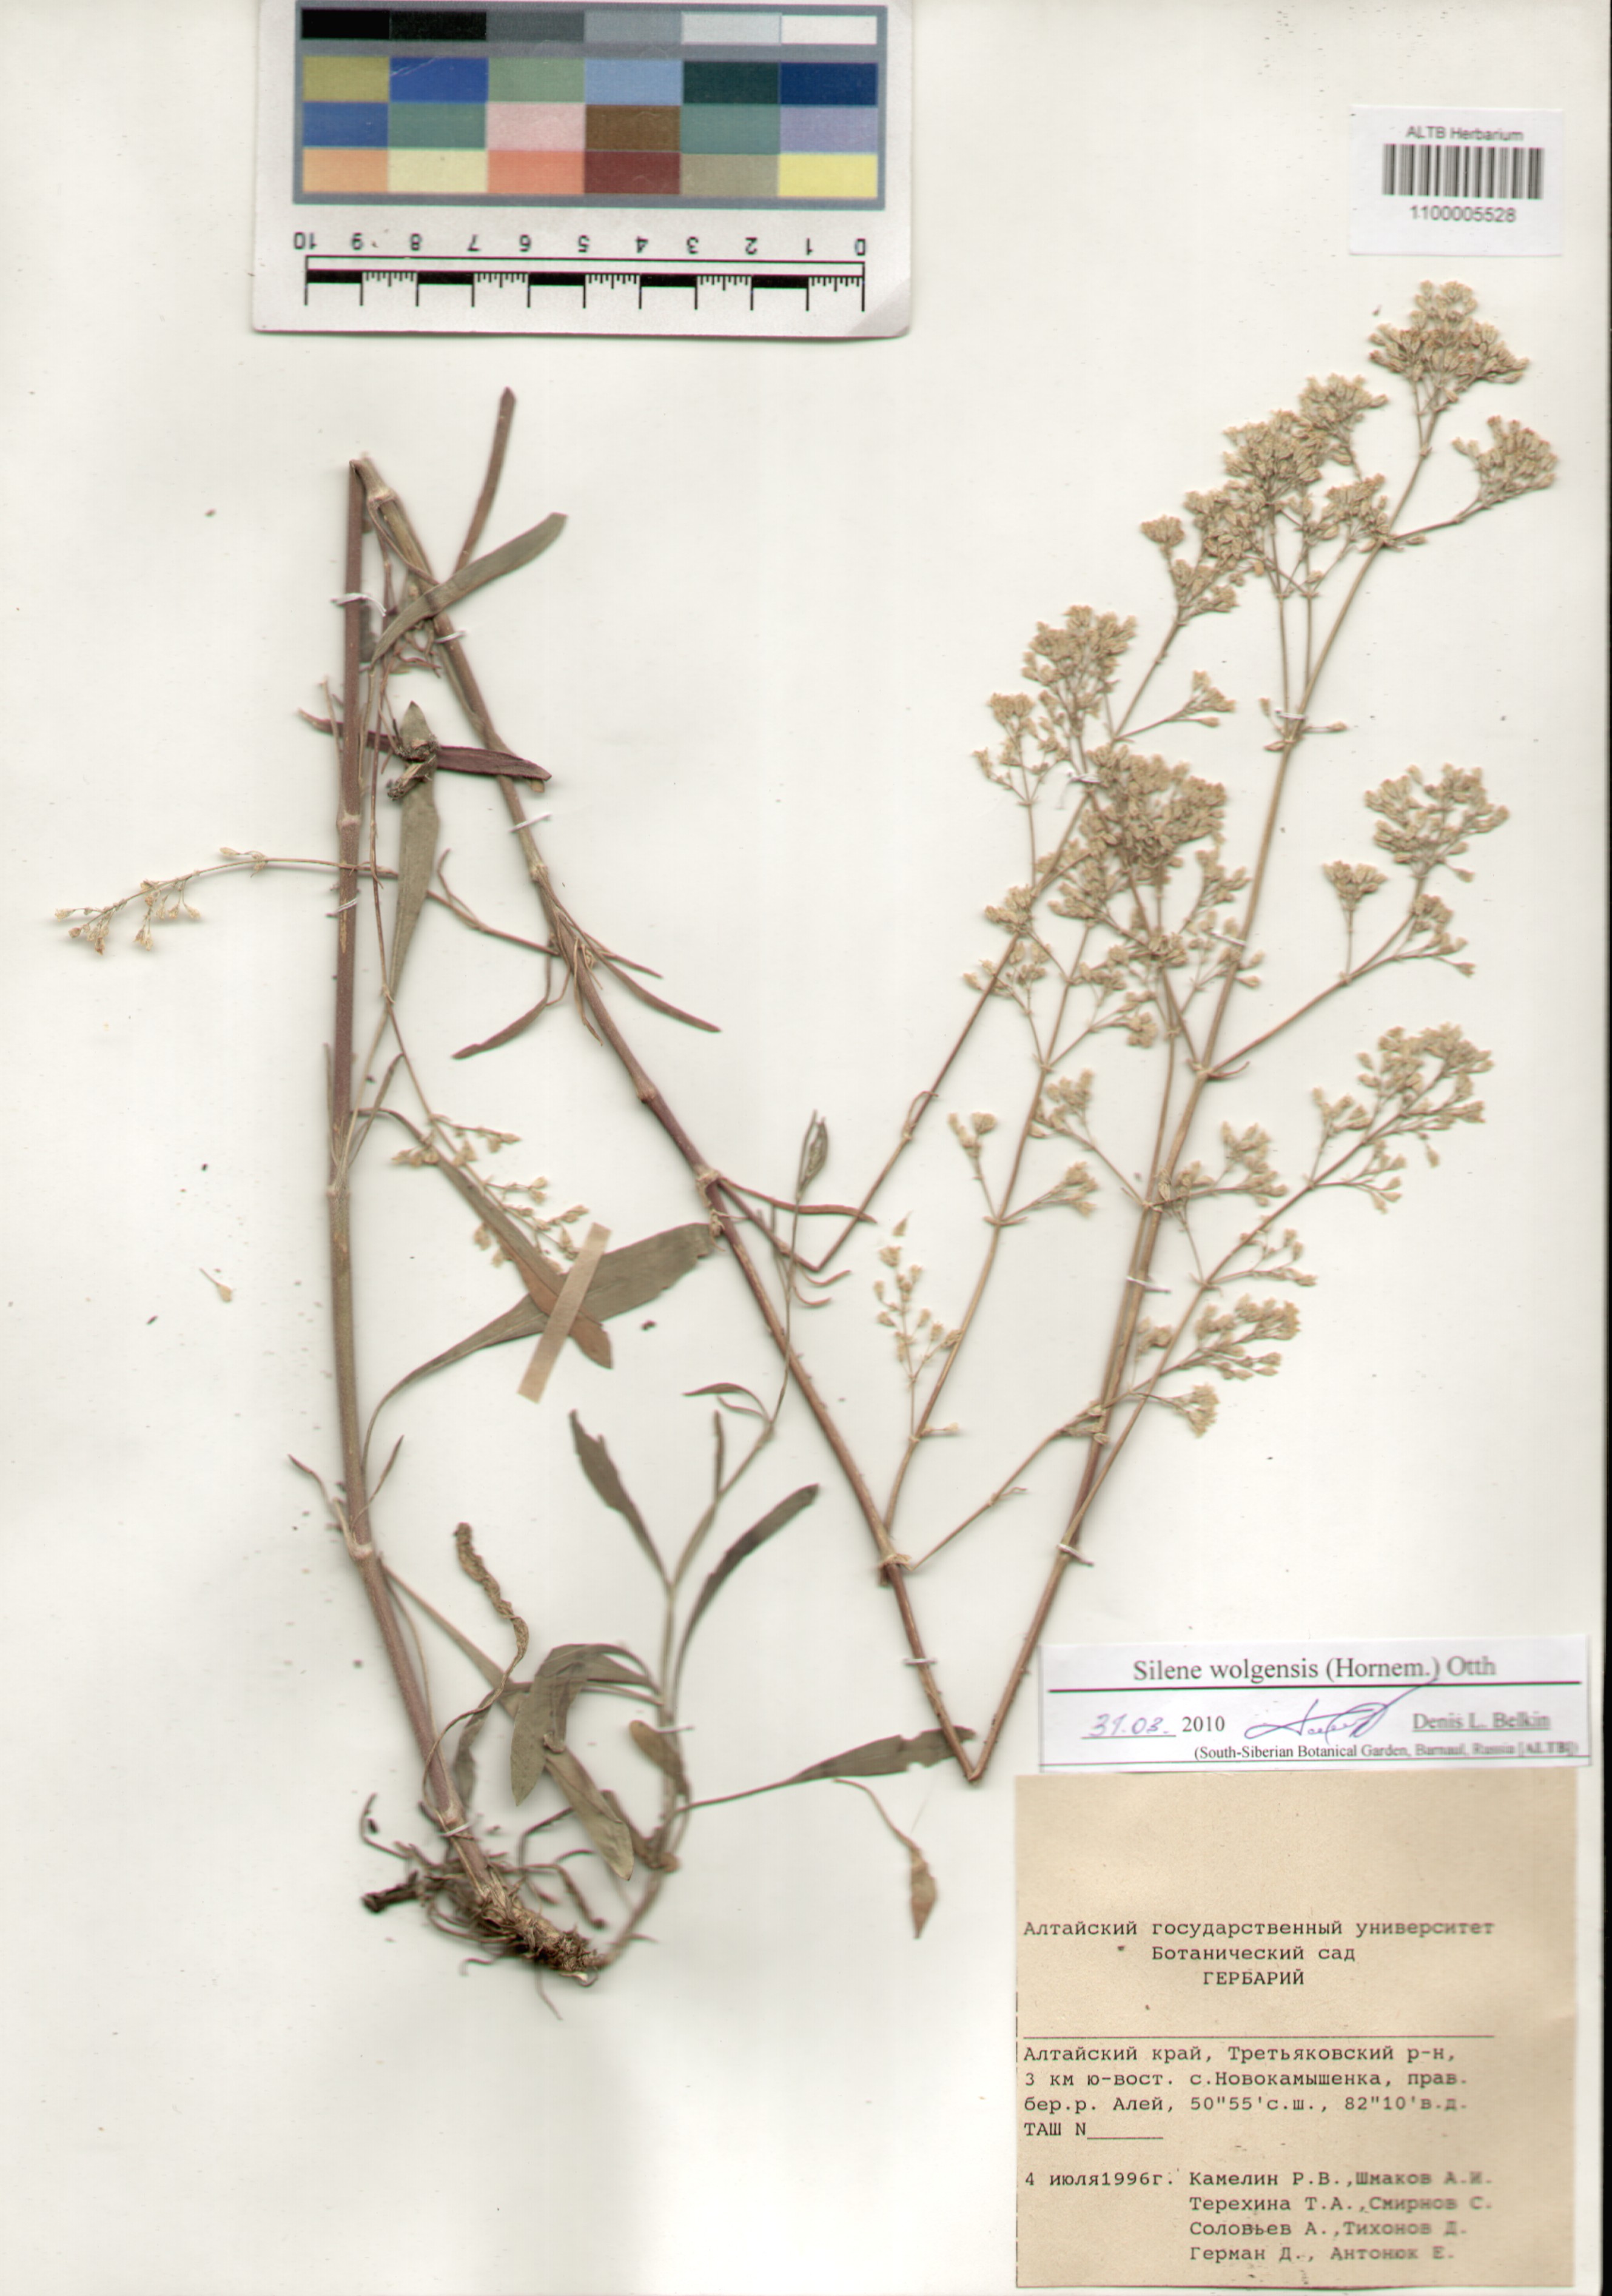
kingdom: Plantae
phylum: Tracheophyta
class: Magnoliopsida
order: Caryophyllales
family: Caryophyllaceae
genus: Silene
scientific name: Silene wolgensis
